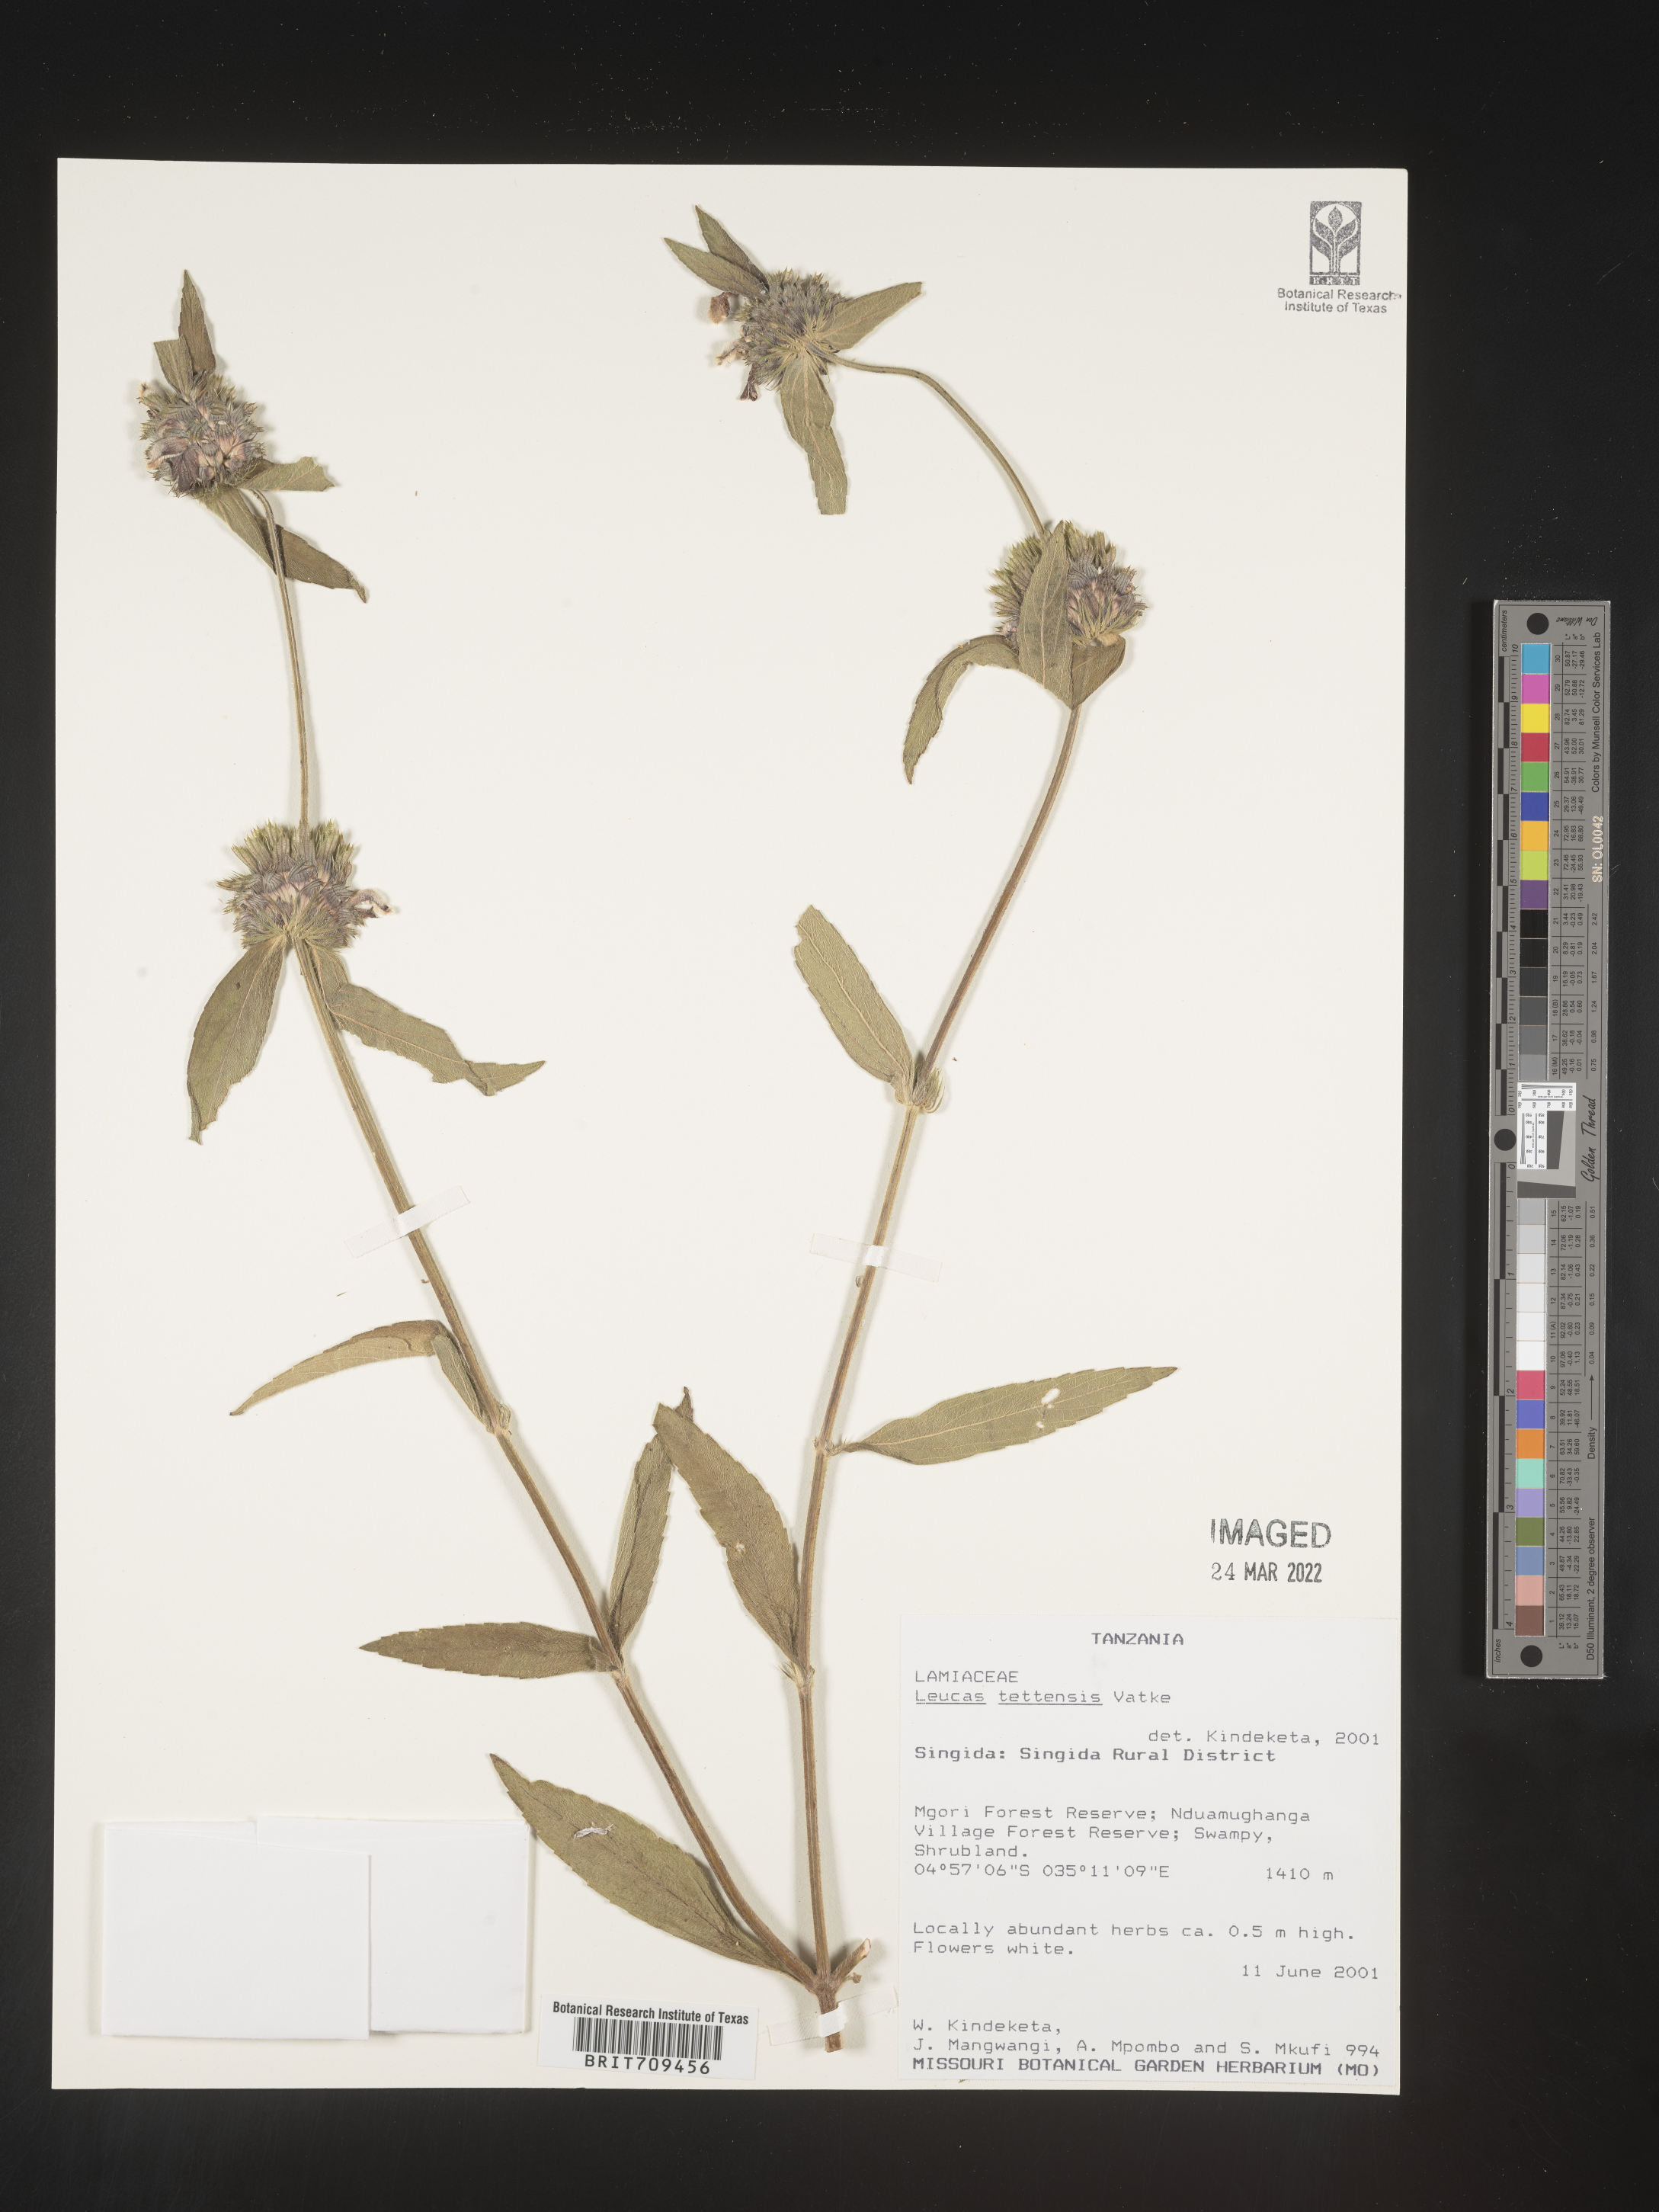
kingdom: Plantae
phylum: Tracheophyta
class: Magnoliopsida
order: Lamiales
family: Lamiaceae
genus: Leucas
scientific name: Leucas
